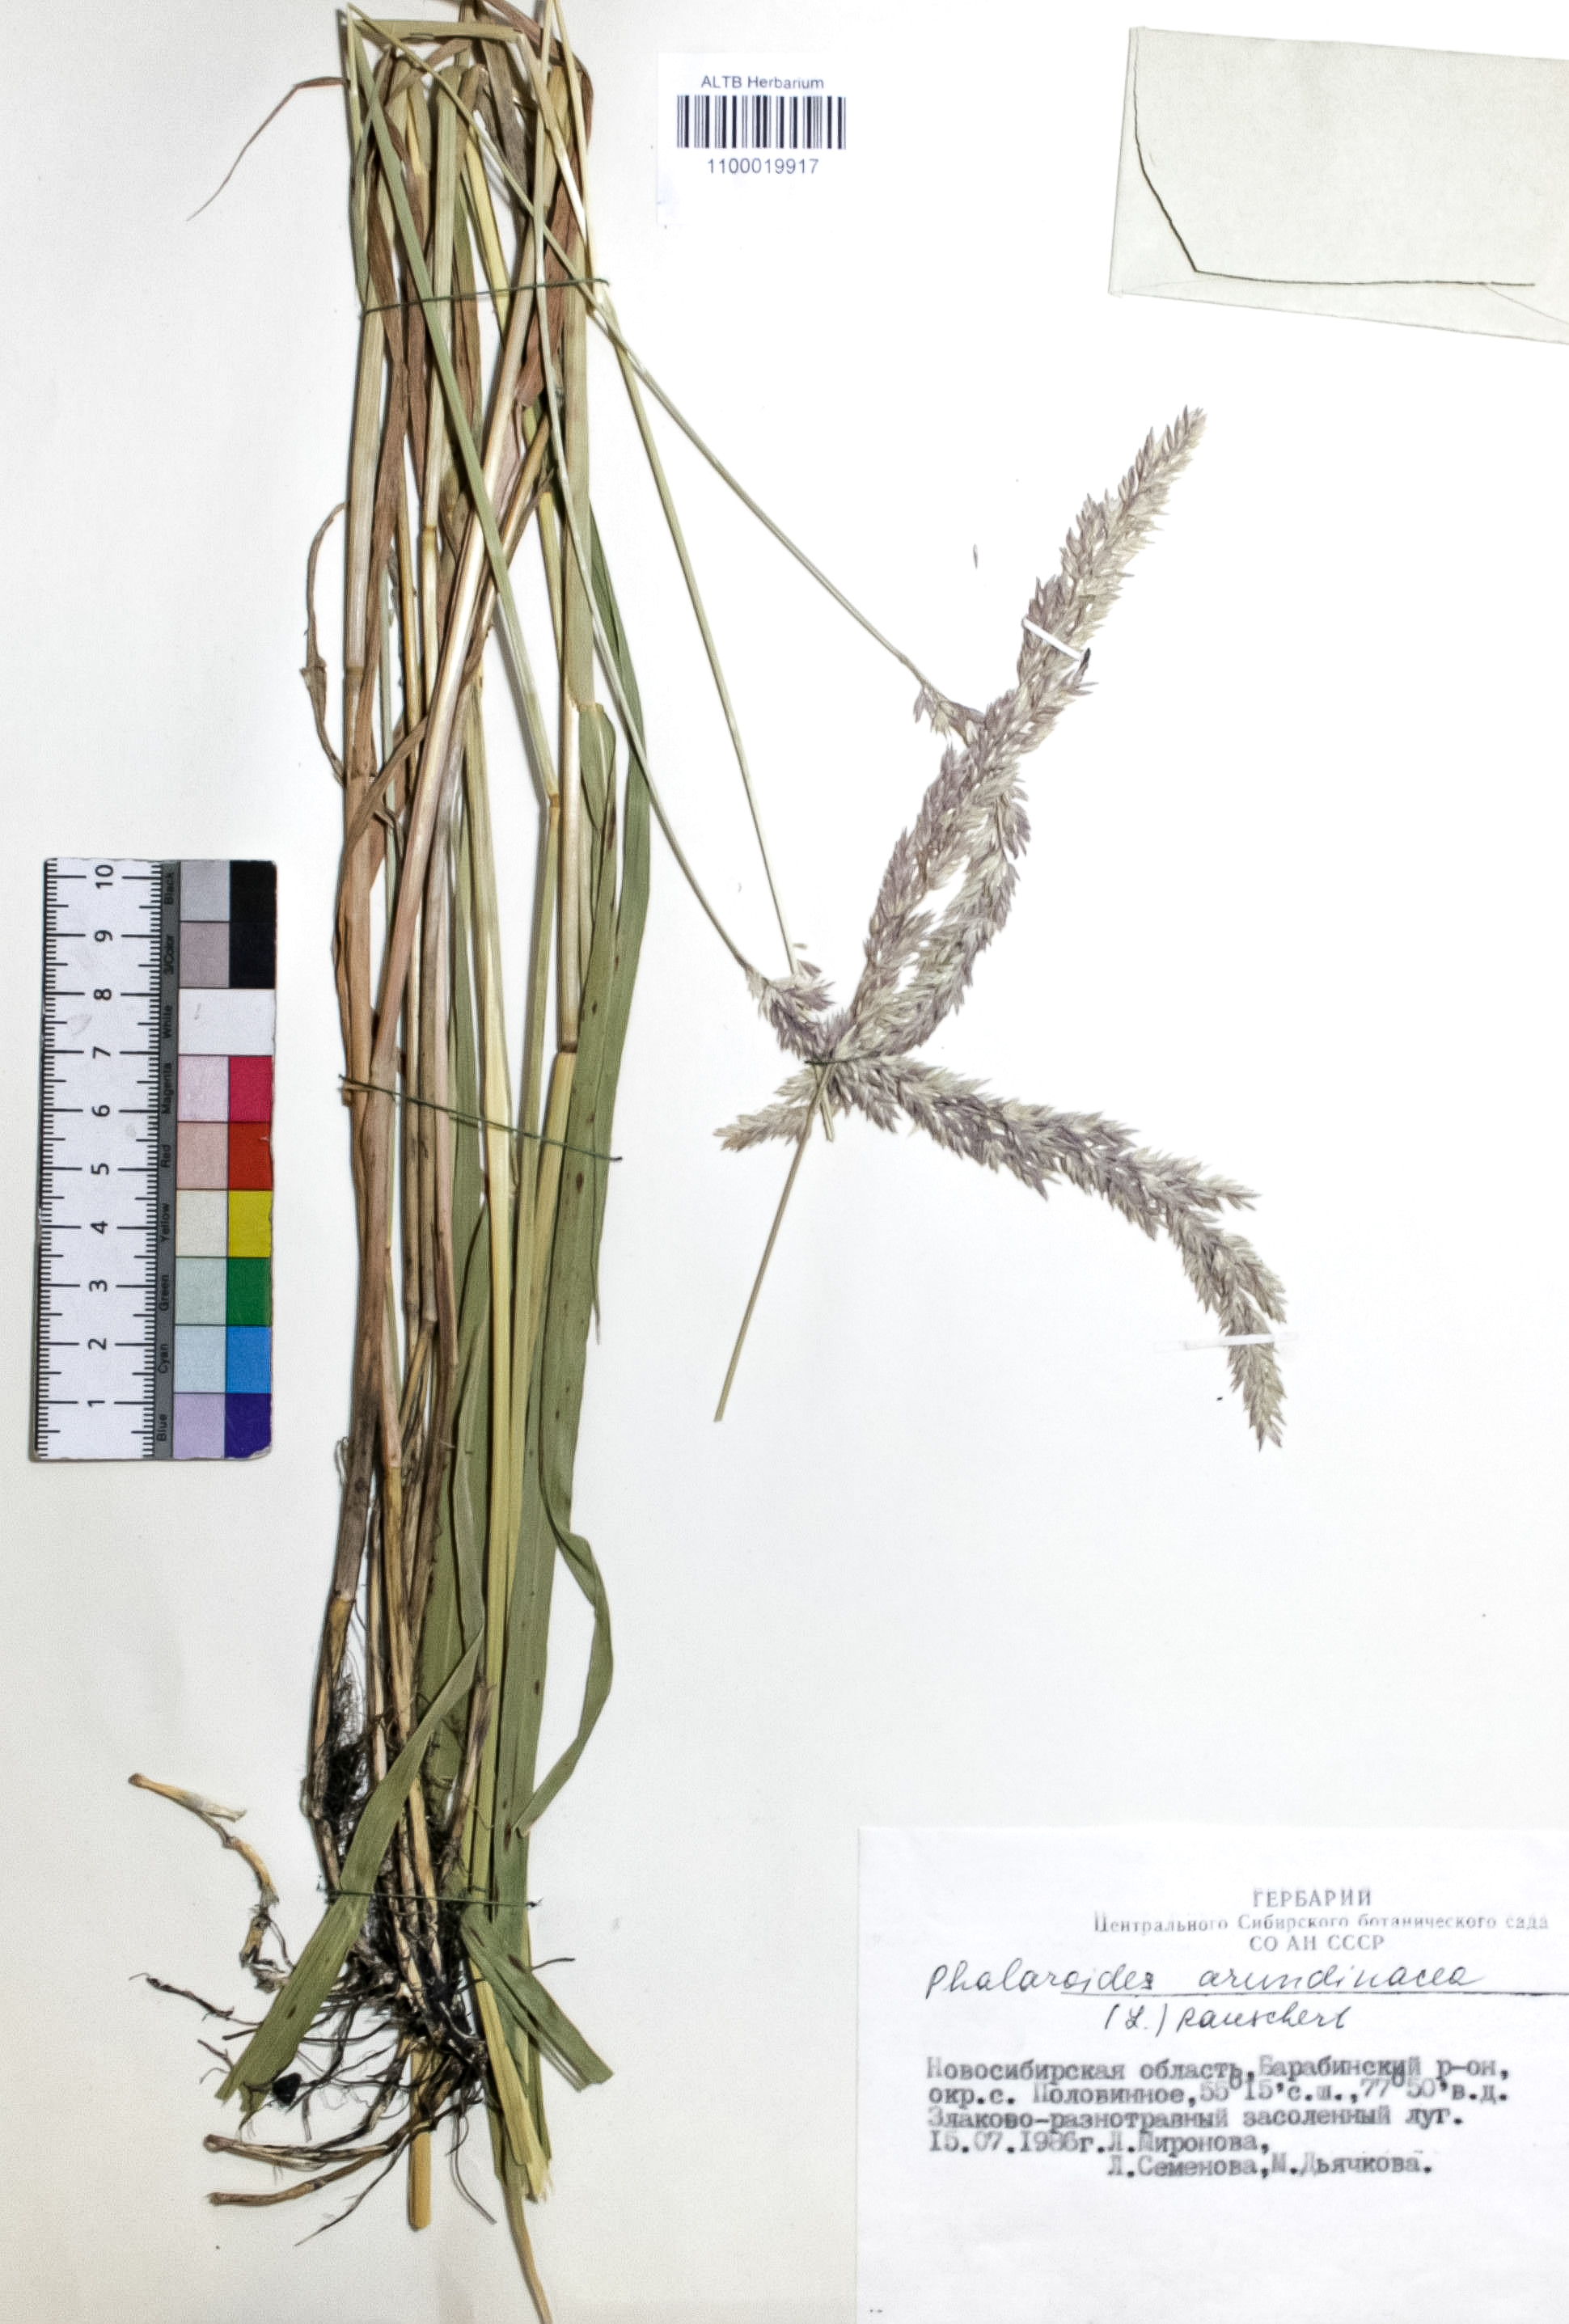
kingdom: Plantae
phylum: Tracheophyta
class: Liliopsida
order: Poales
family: Poaceae
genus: Phalaris
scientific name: Phalaris arundinacea
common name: Reed canary-grass
